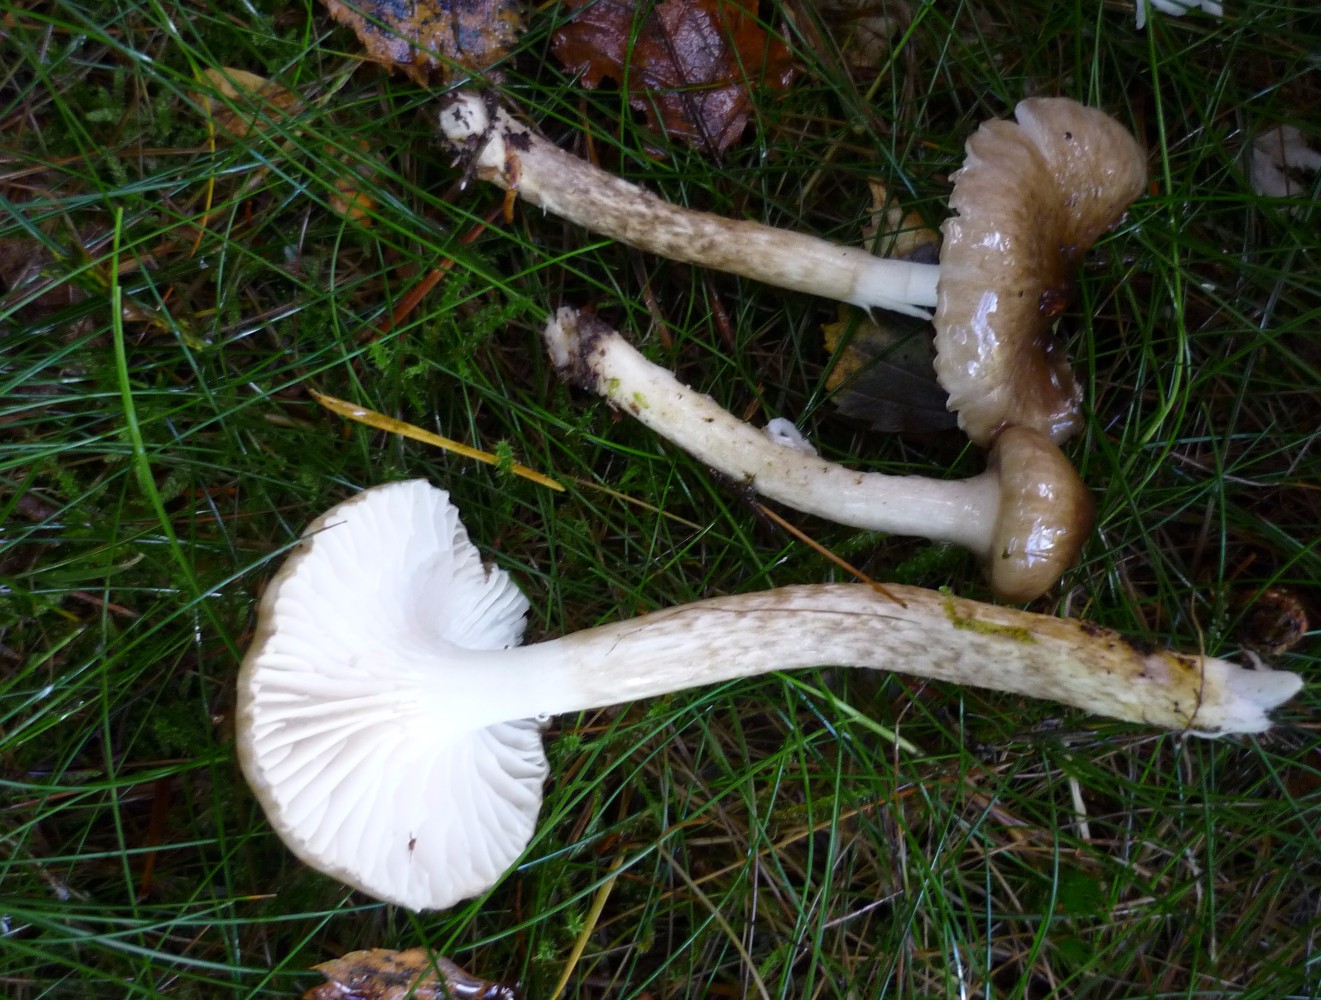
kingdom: Fungi
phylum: Basidiomycota
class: Agaricomycetes
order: Agaricales
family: Hygrophoraceae
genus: Hygrophorus
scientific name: Hygrophorus olivaceoalbus
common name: hvidbrun sneglehat
